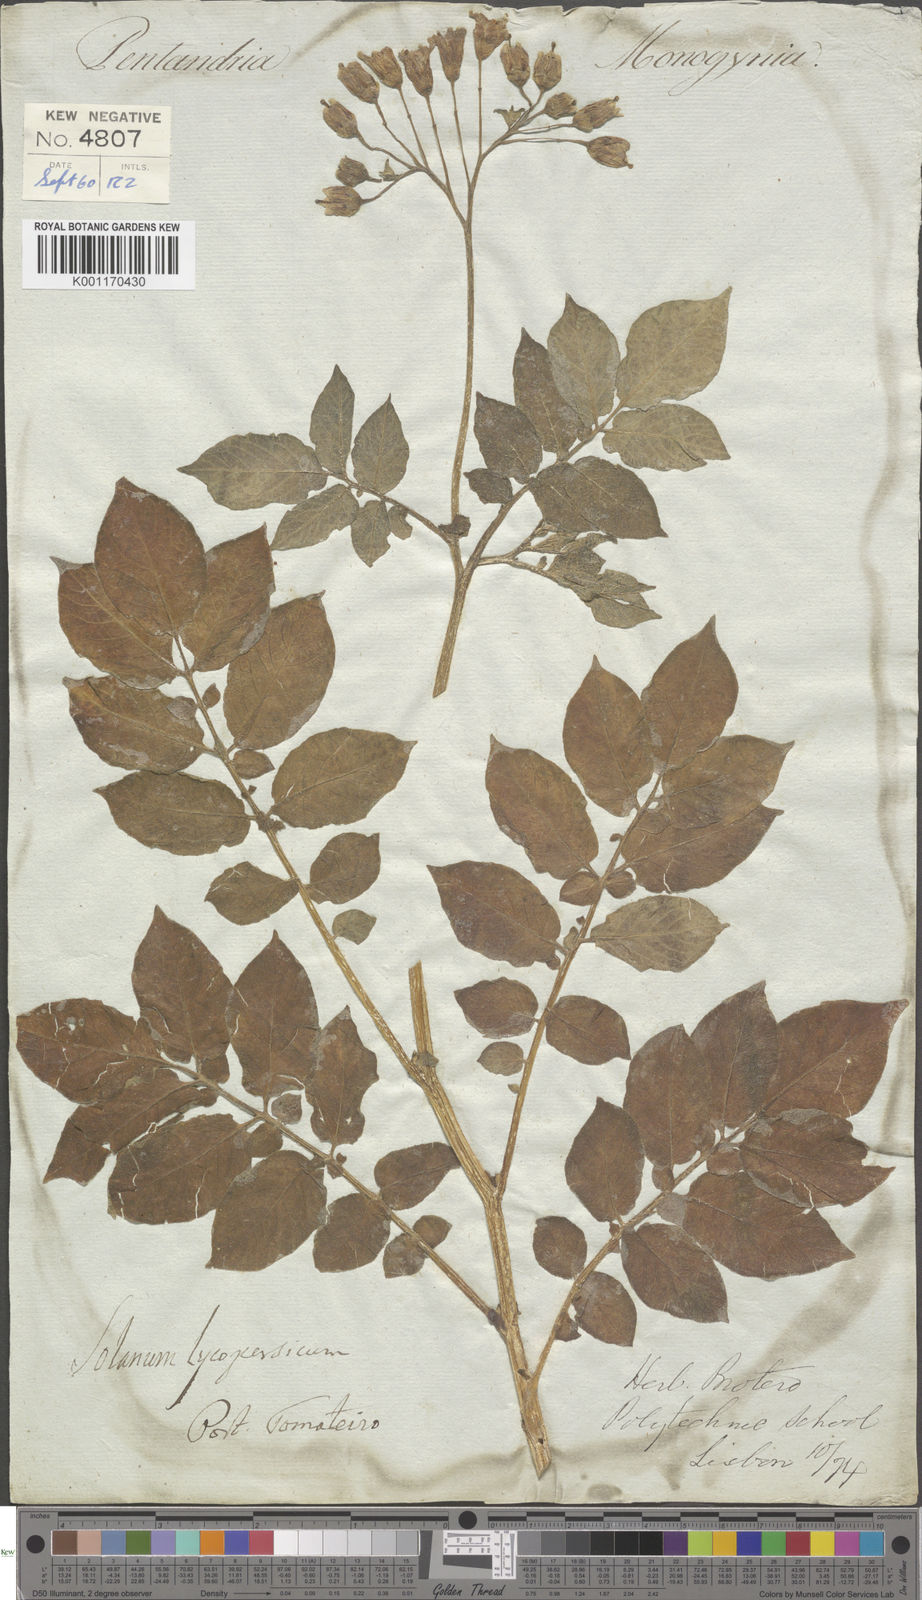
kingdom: Plantae
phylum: Tracheophyta
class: Magnoliopsida
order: Solanales
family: Solanaceae
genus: Solanum
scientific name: Solanum tuberosum
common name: Potato
